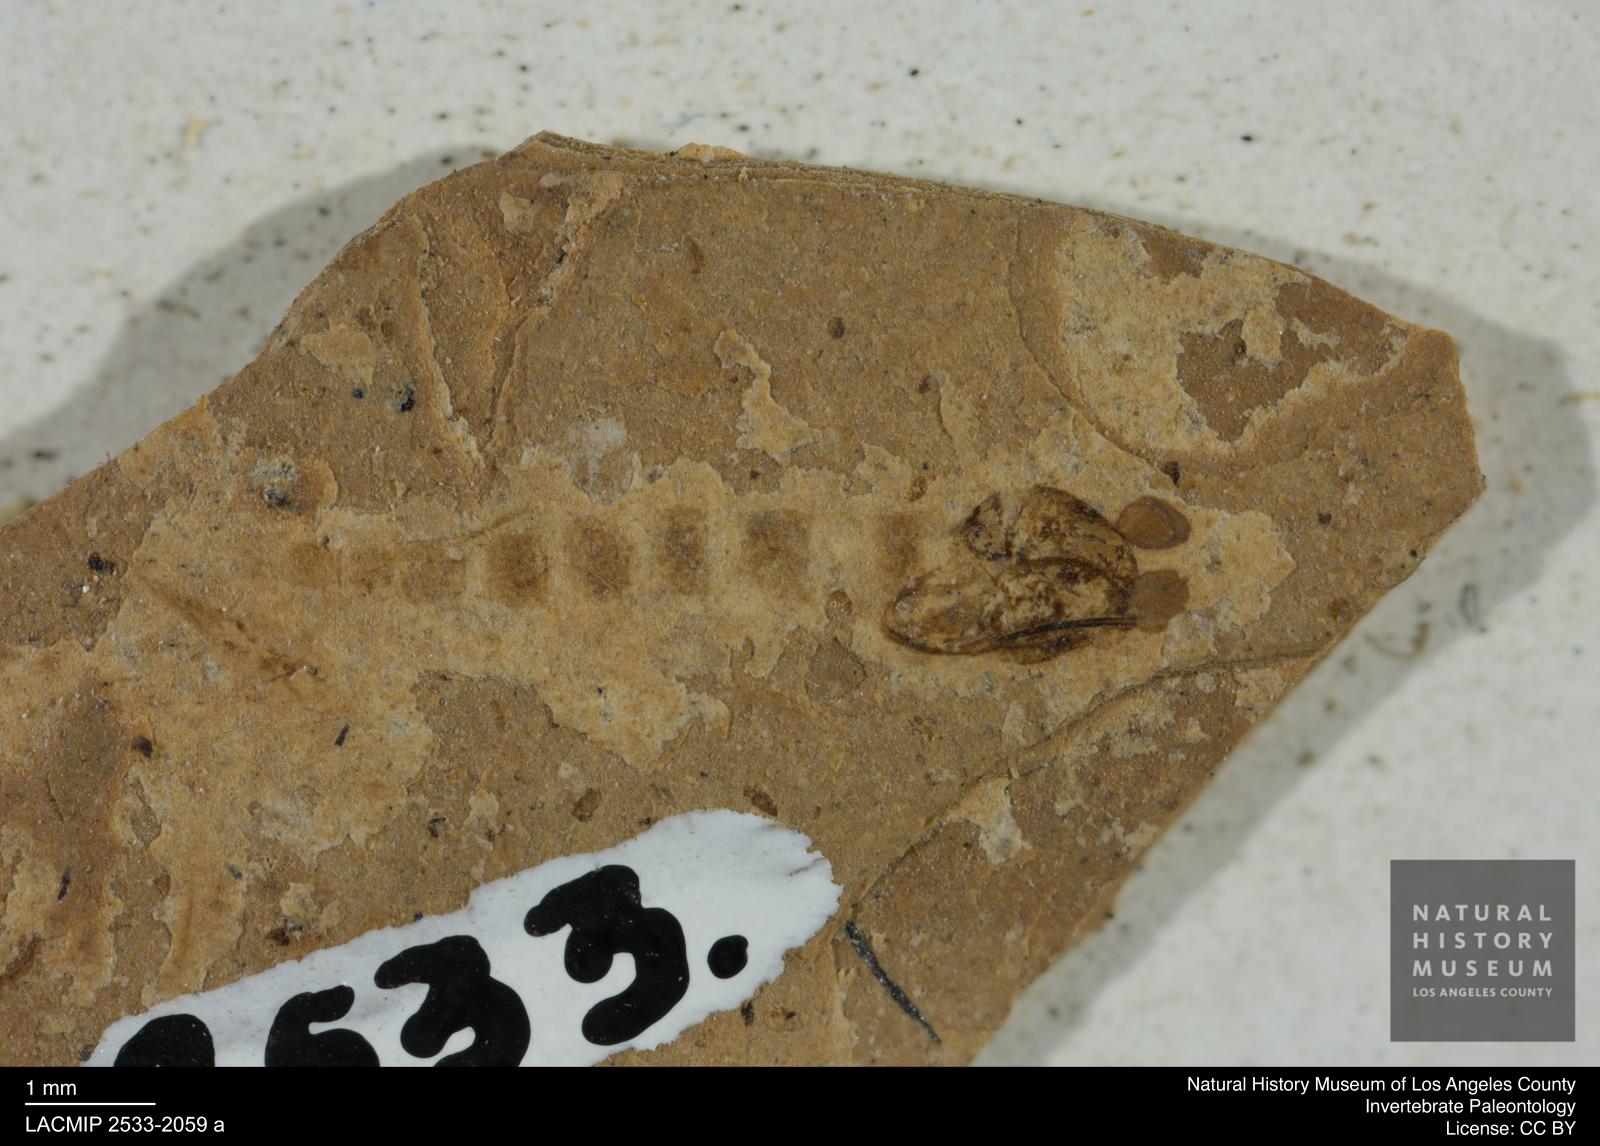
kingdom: Animalia
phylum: Arthropoda
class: Insecta
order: Diptera
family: Chironomidae
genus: Pelopiina
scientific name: Pelopiina
